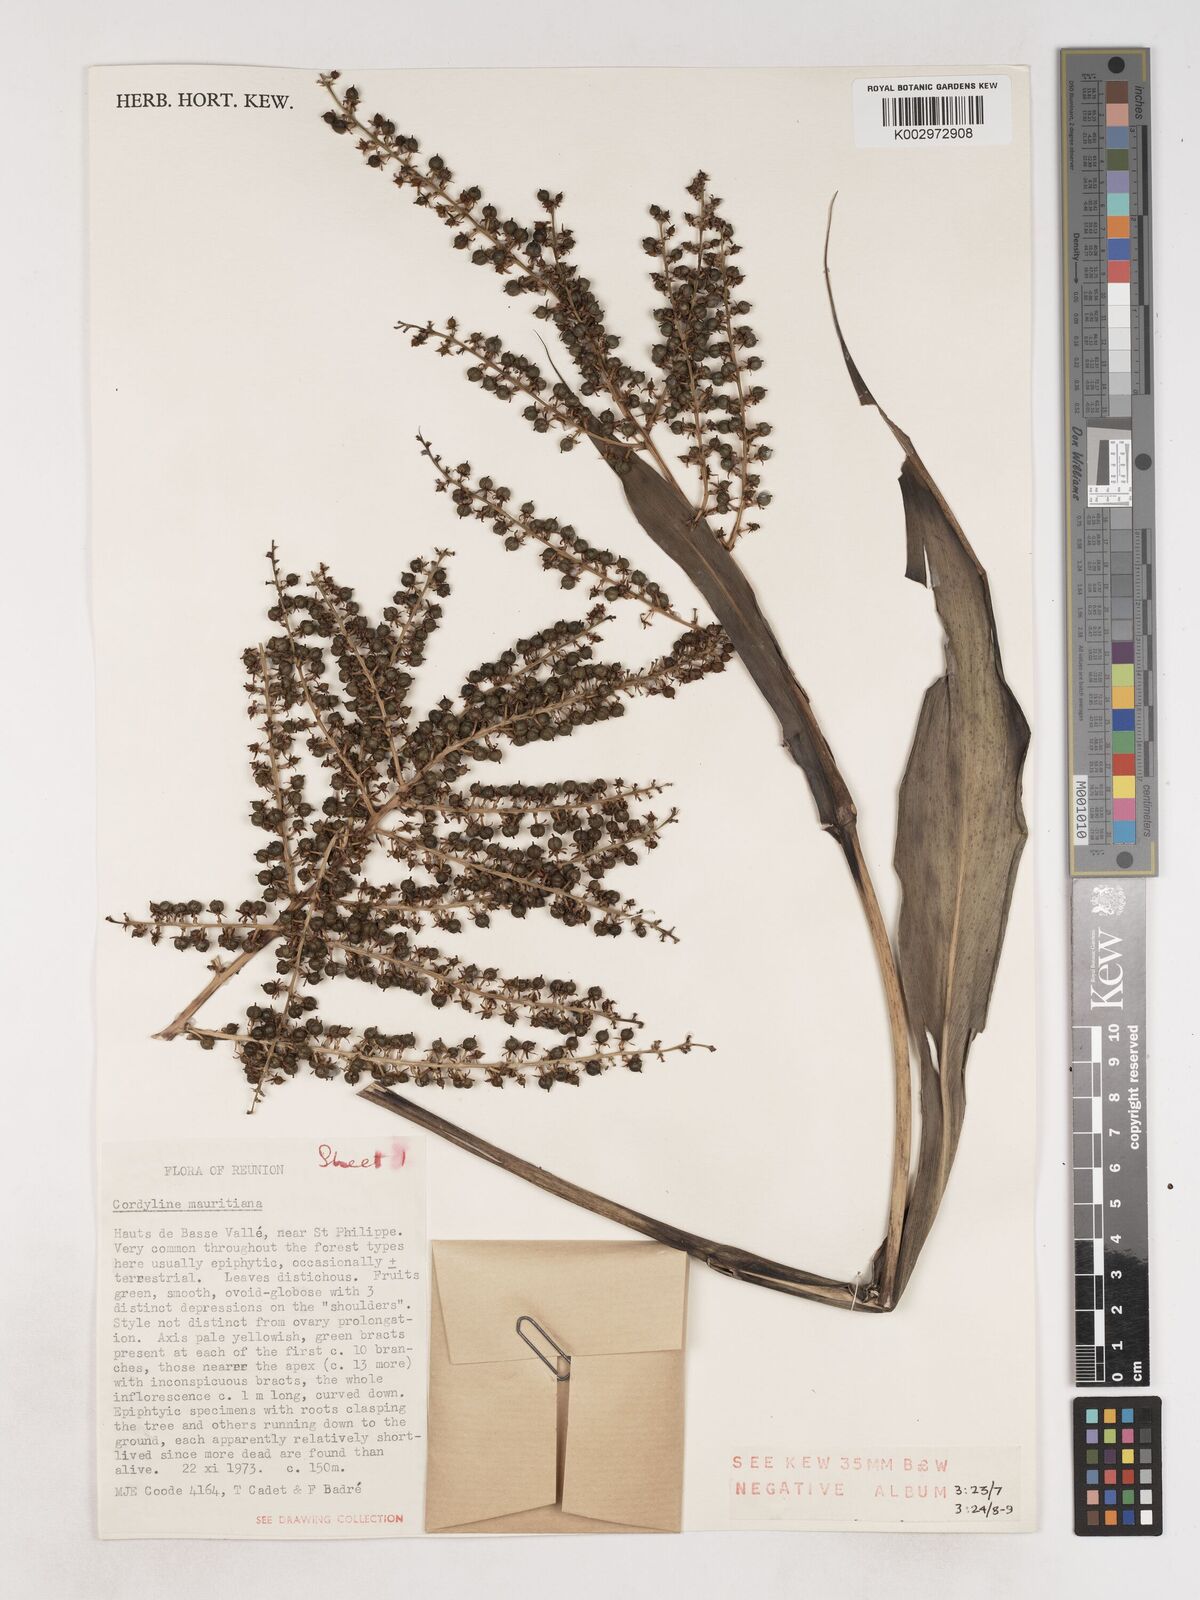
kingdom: Plantae
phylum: Tracheophyta
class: Liliopsida
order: Asparagales
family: Asparagaceae
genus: Cordyline
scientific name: Cordyline mauritiana
